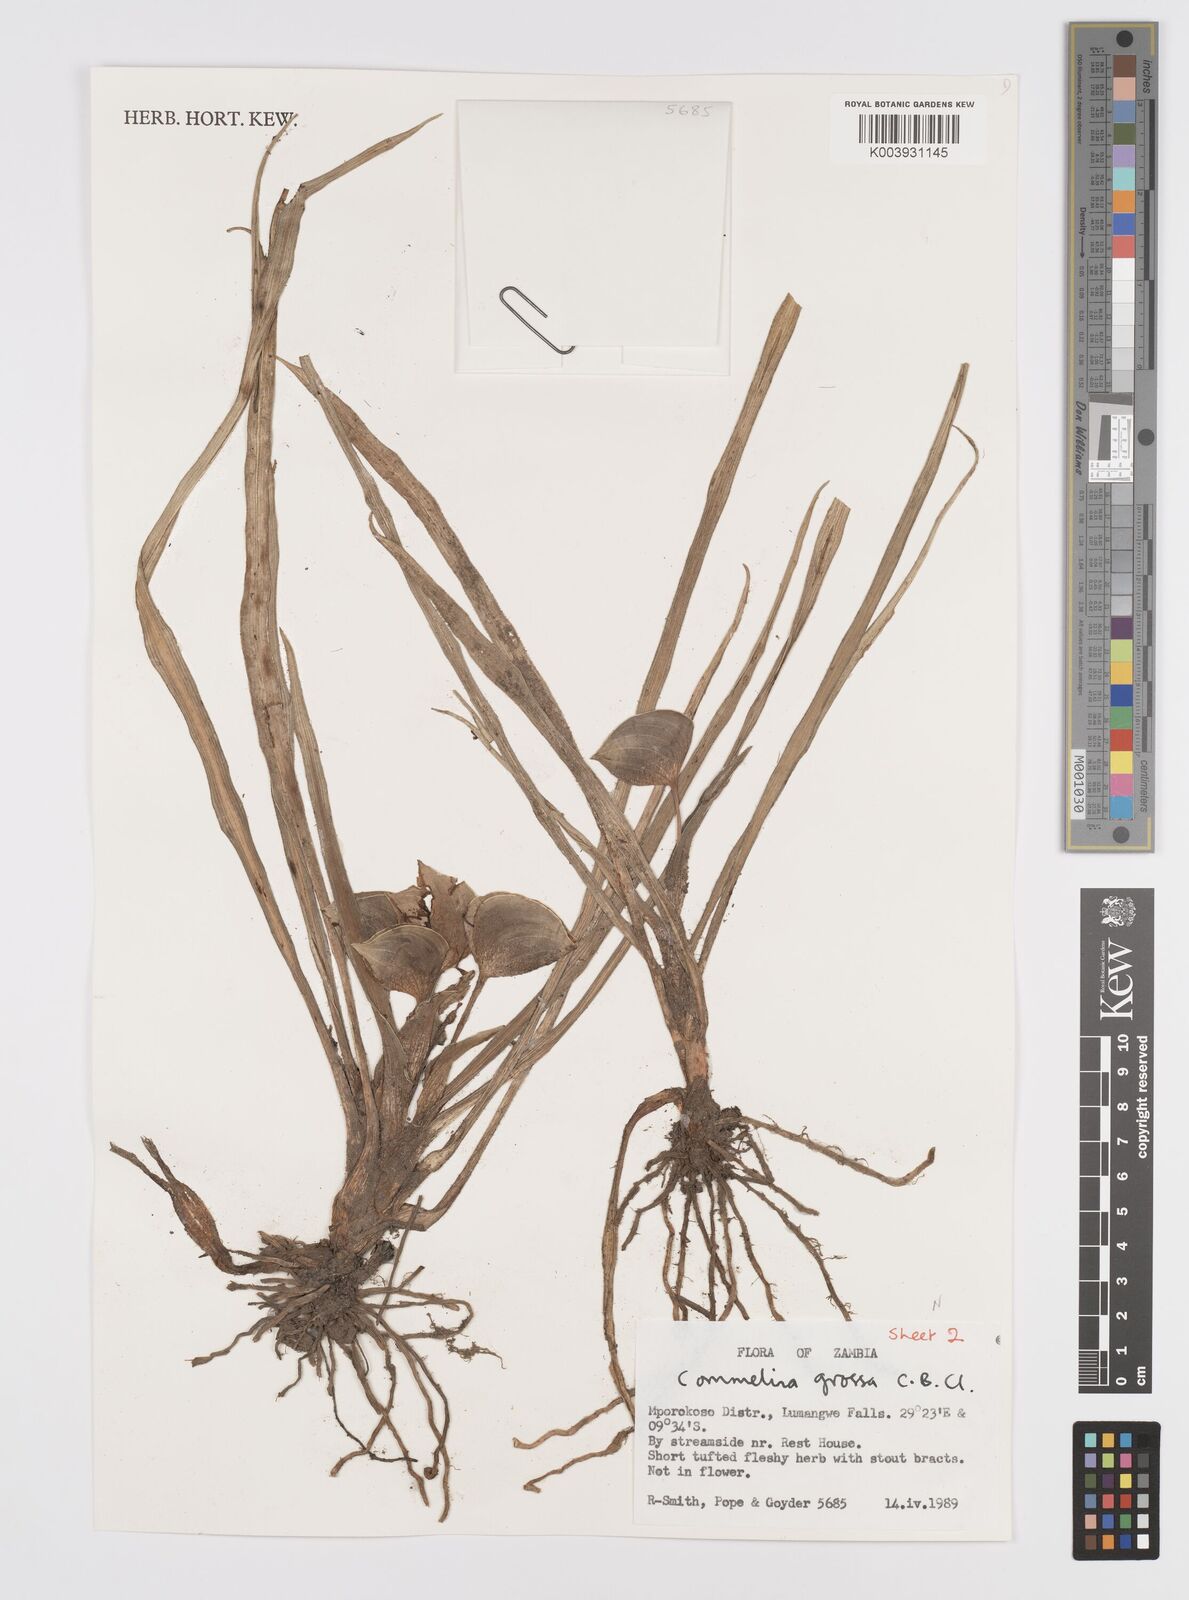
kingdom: Plantae
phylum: Tracheophyta
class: Liliopsida
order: Commelinales
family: Commelinaceae
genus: Commelina
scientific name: Commelina grossa
